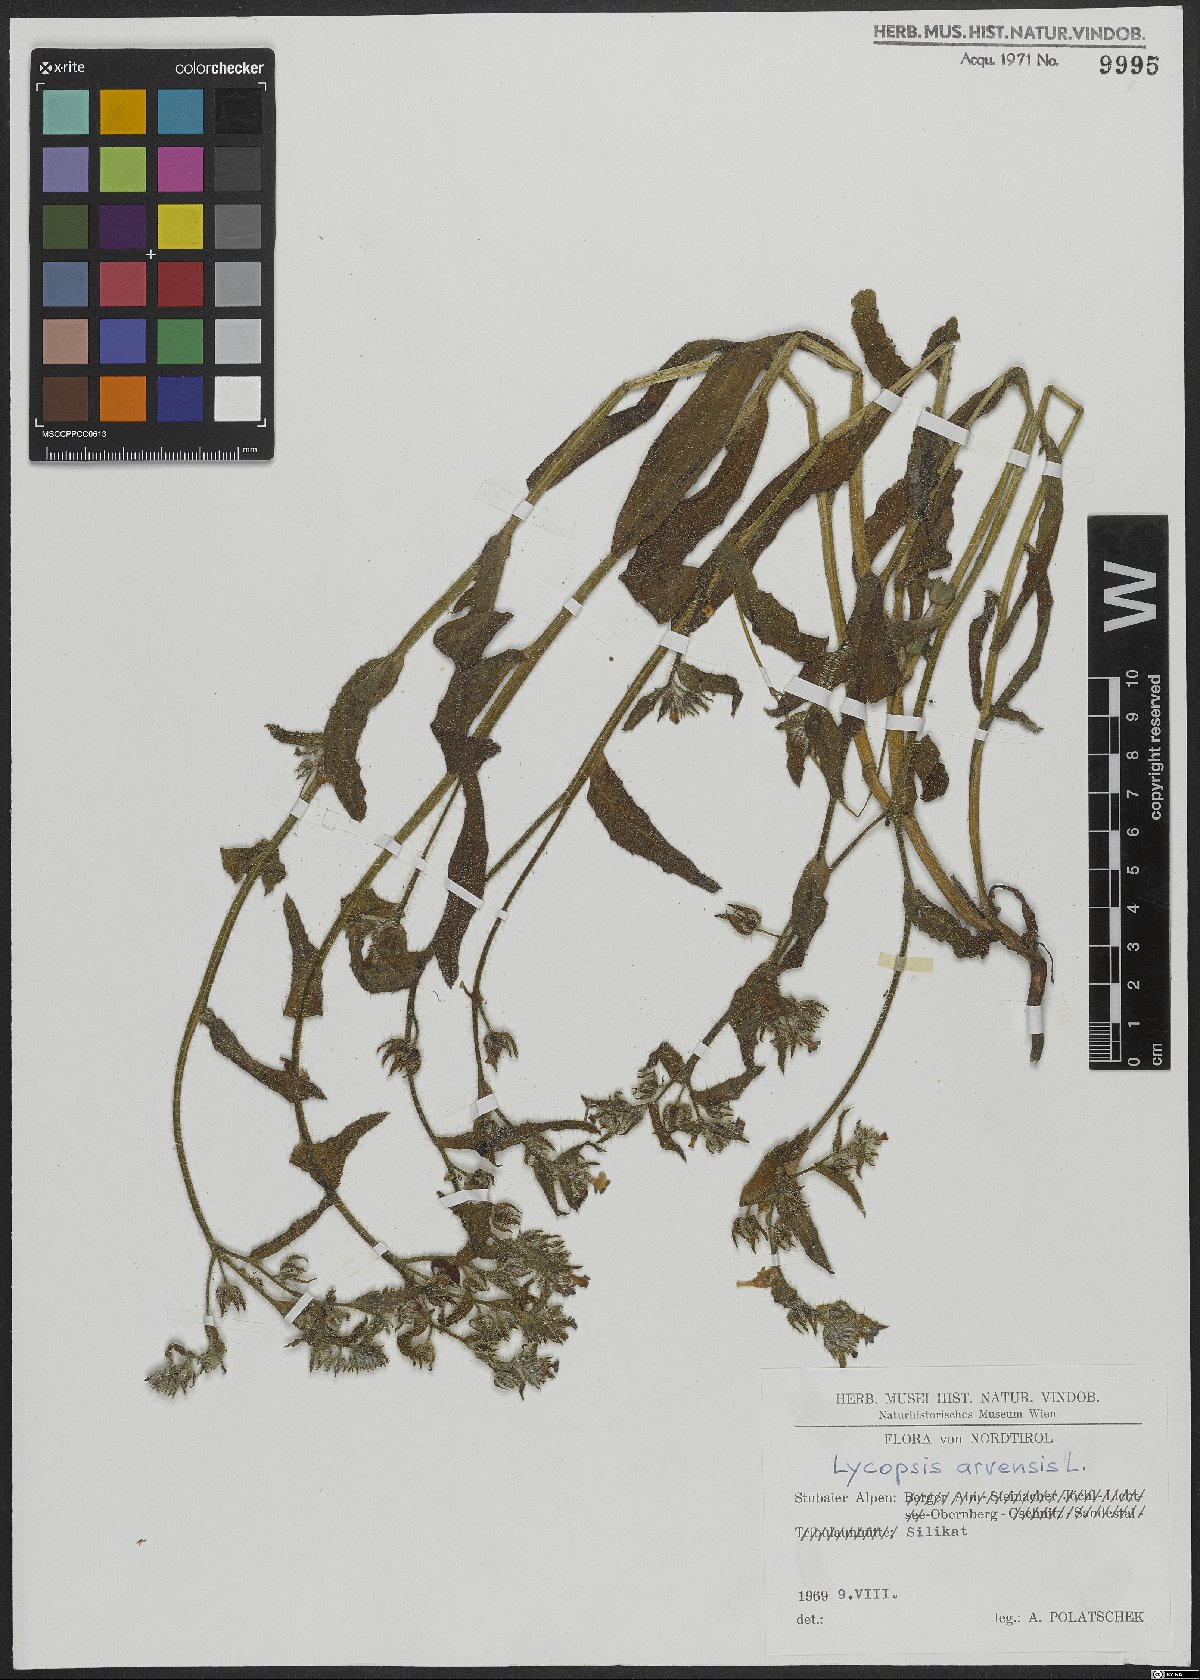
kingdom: Plantae
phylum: Tracheophyta
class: Magnoliopsida
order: Boraginales
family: Boraginaceae
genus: Lycopsis
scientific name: Lycopsis arvensis
